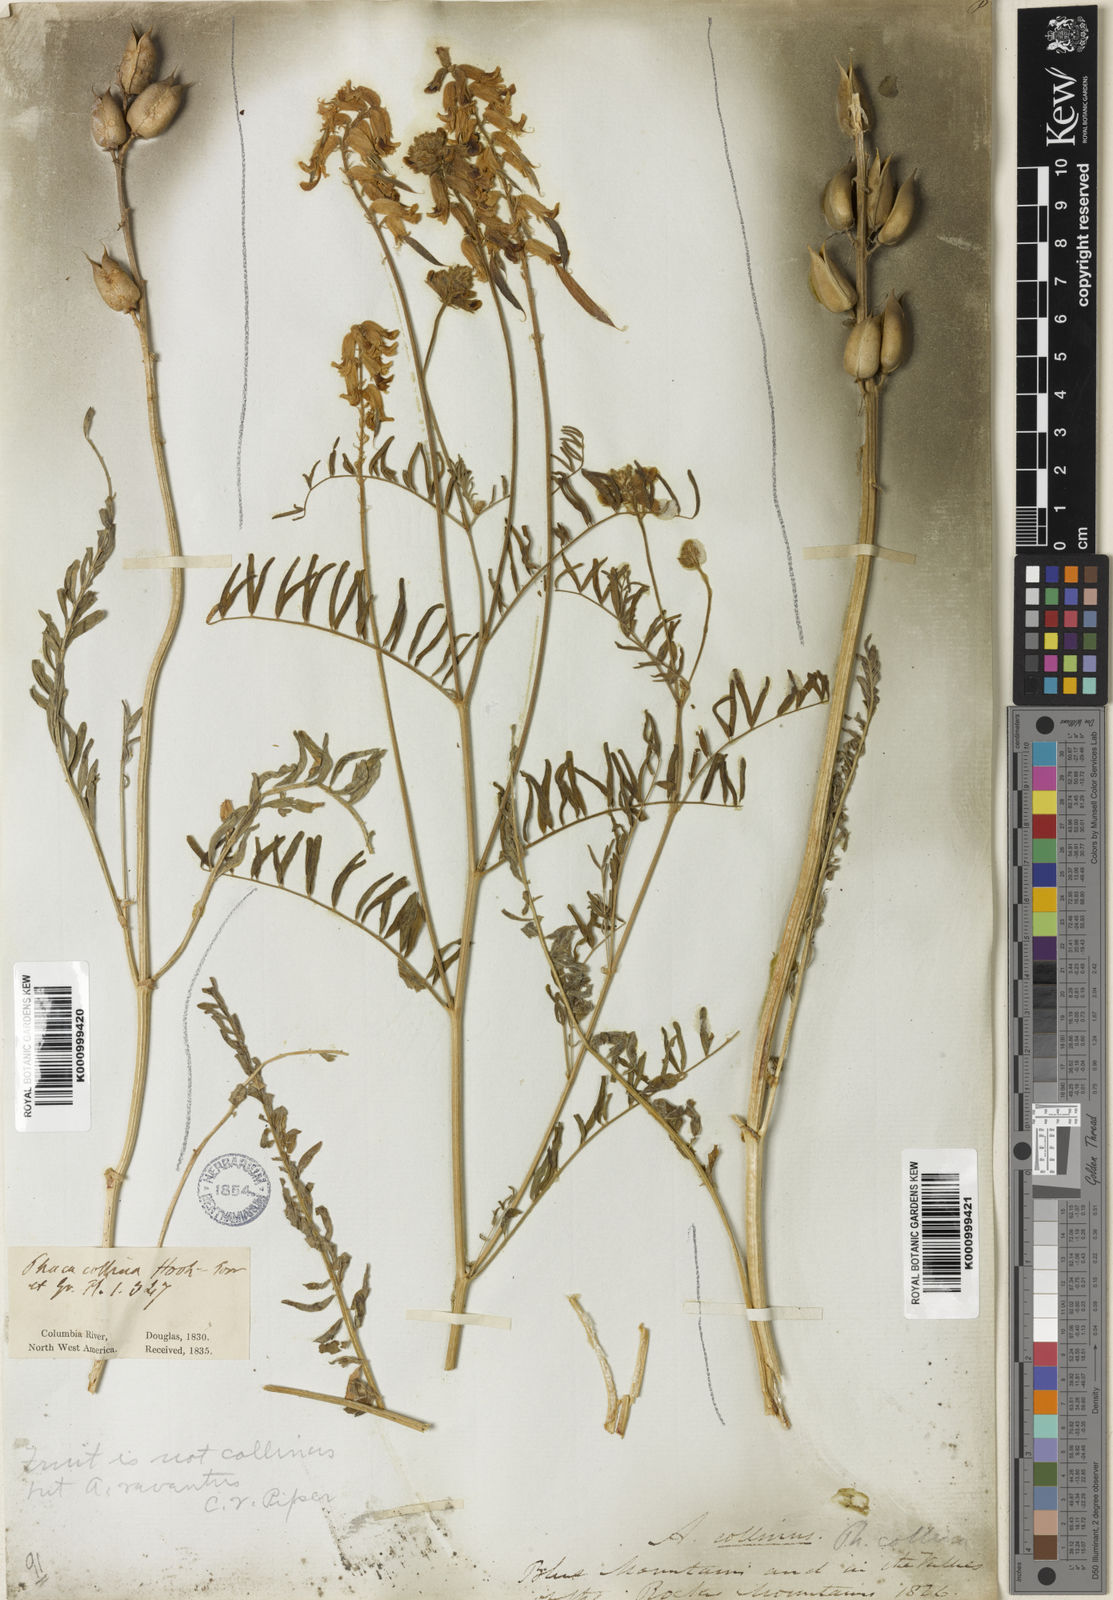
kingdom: Plantae
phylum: Tracheophyta
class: Magnoliopsida
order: Fabales
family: Fabaceae
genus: Astragalus
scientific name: Astragalus collinus
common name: Hill milk-vetch
